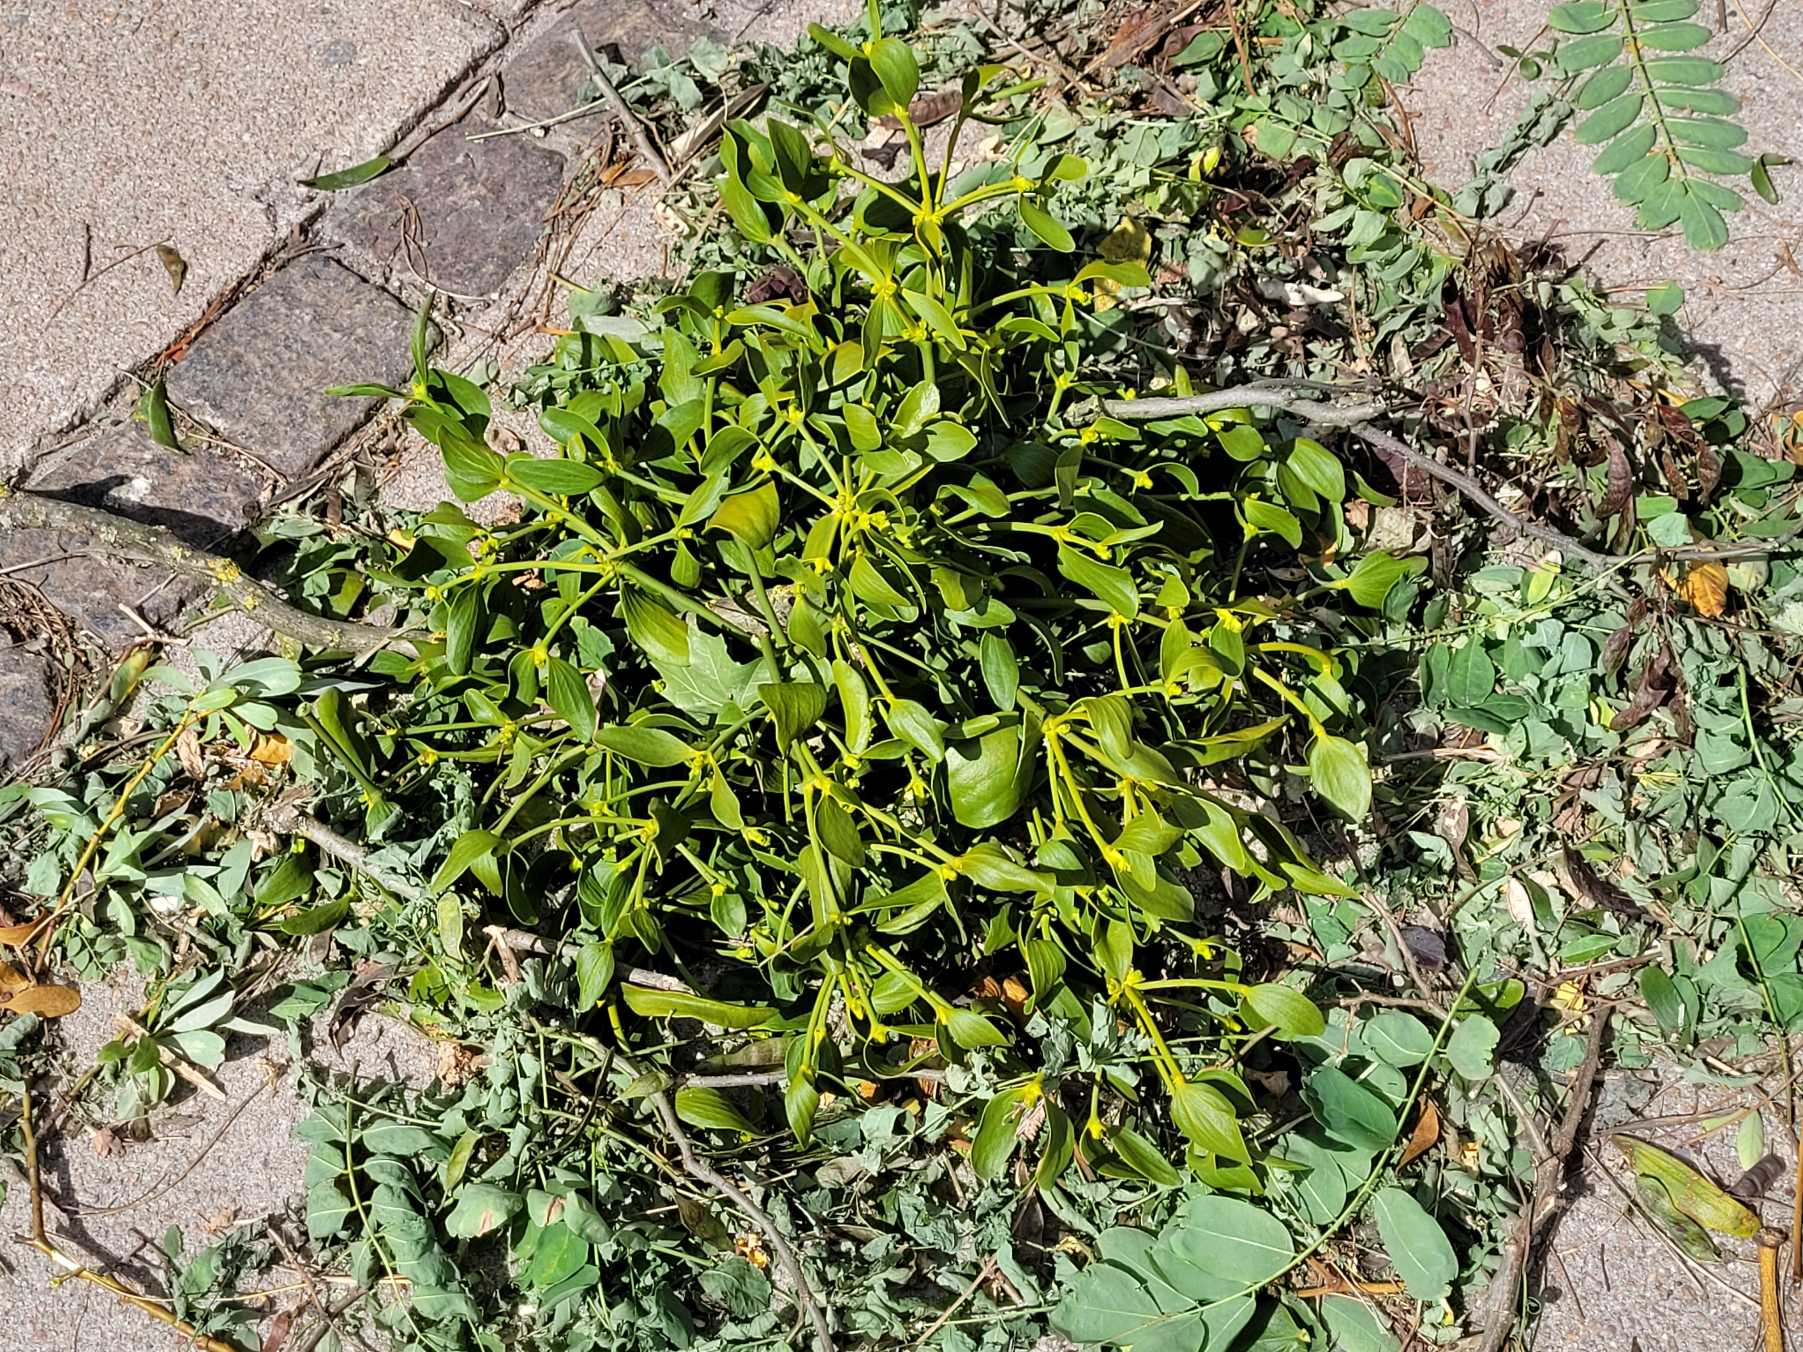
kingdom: Plantae
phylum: Tracheophyta
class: Magnoliopsida
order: Santalales
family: Viscaceae
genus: Viscum
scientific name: Viscum album
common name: Mistelten
